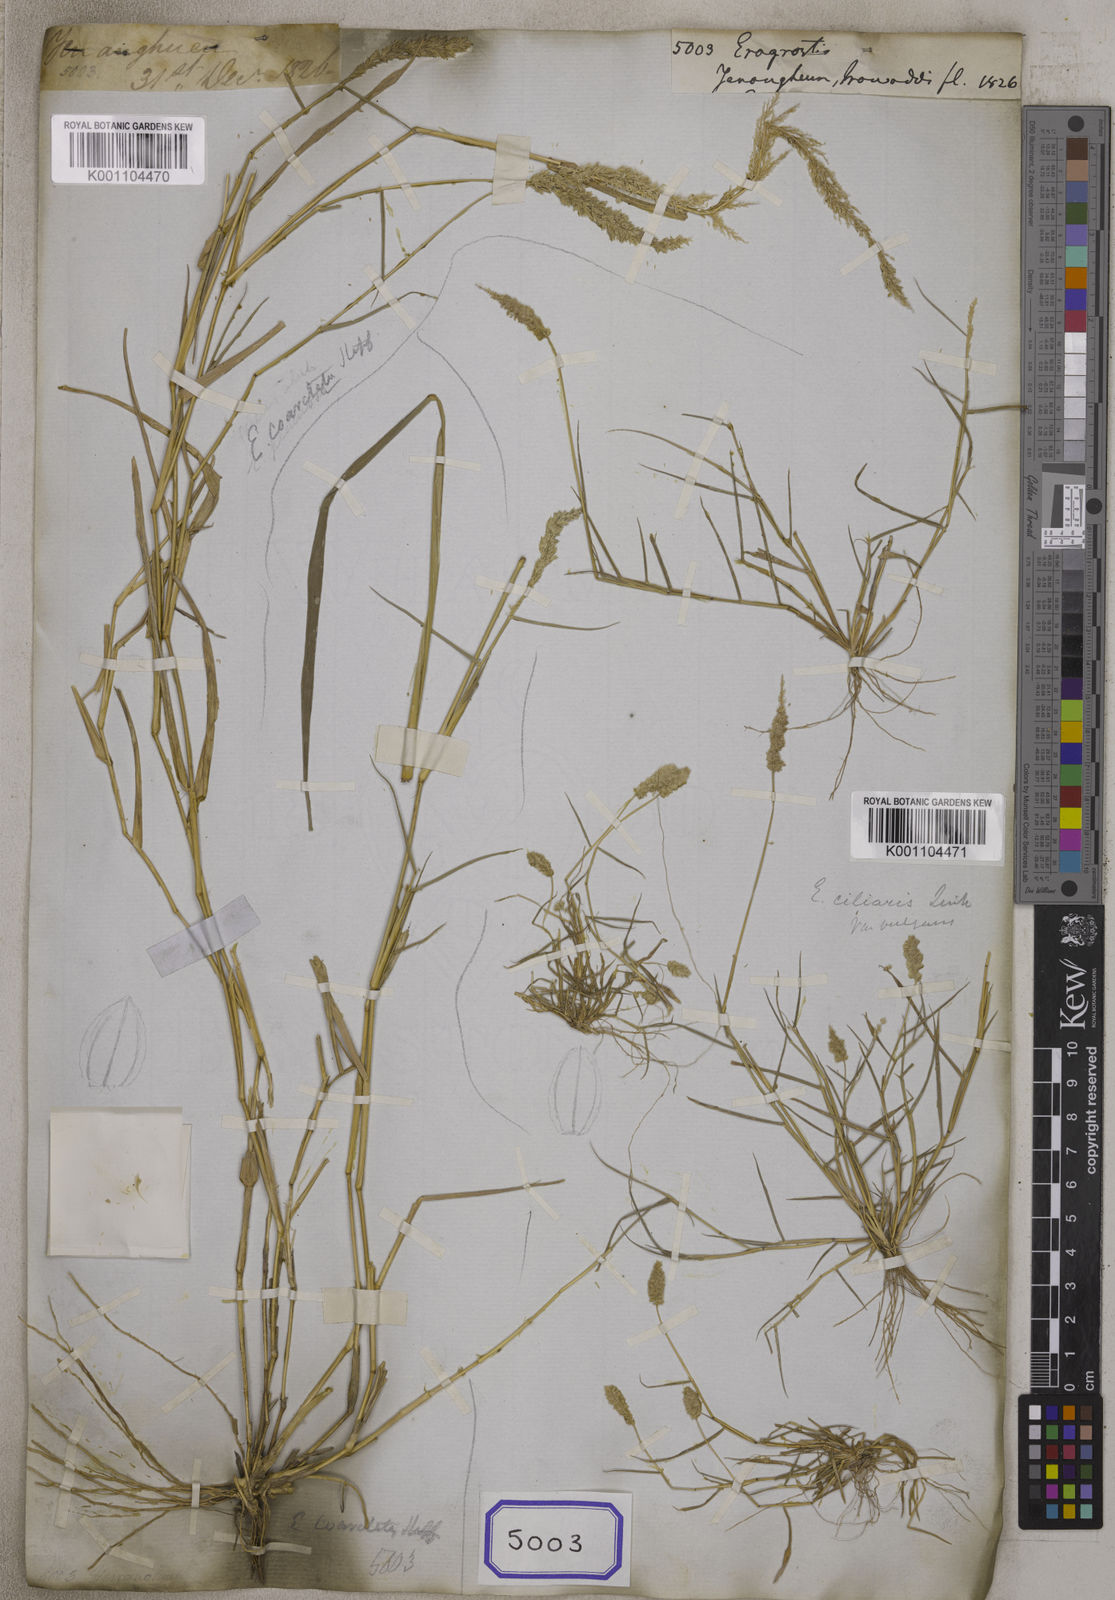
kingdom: Plantae
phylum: Tracheophyta
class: Liliopsida
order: Poales
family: Poaceae
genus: Eragrostis
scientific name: Eragrostis
